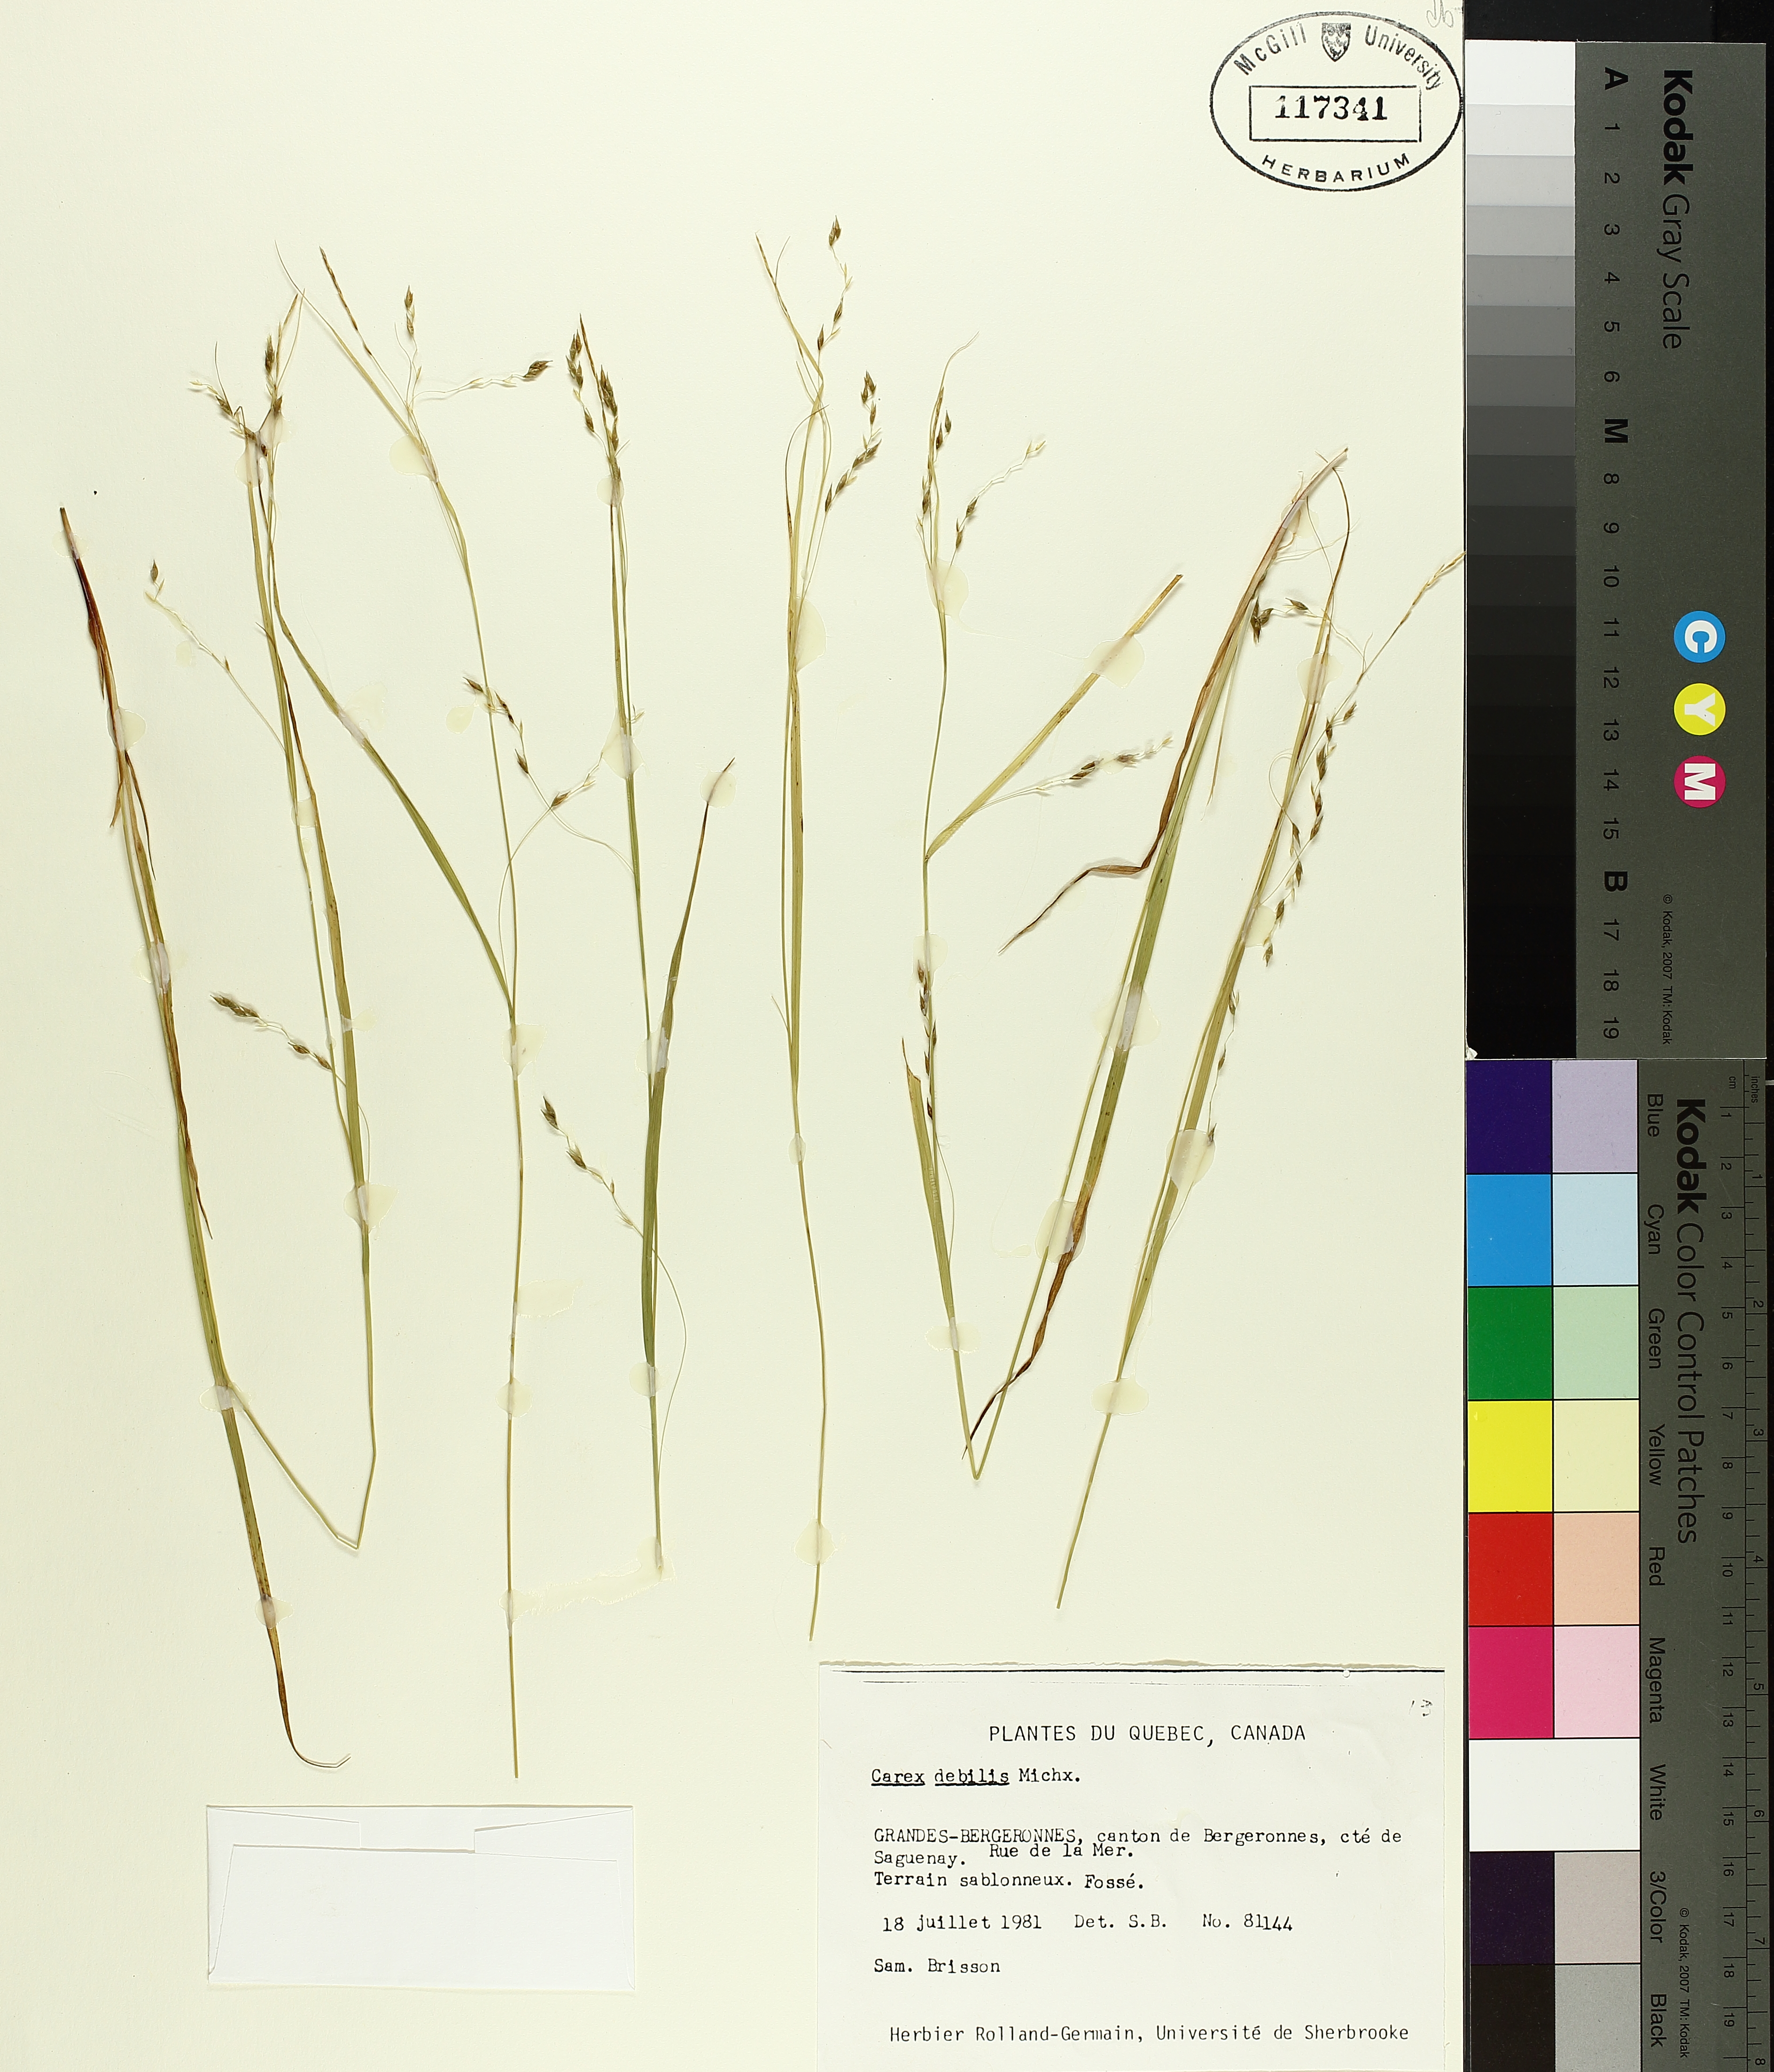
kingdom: Plantae
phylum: Tracheophyta
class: Liliopsida
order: Poales
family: Cyperaceae
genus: Carex
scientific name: Carex debilis
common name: White-edge sedge
